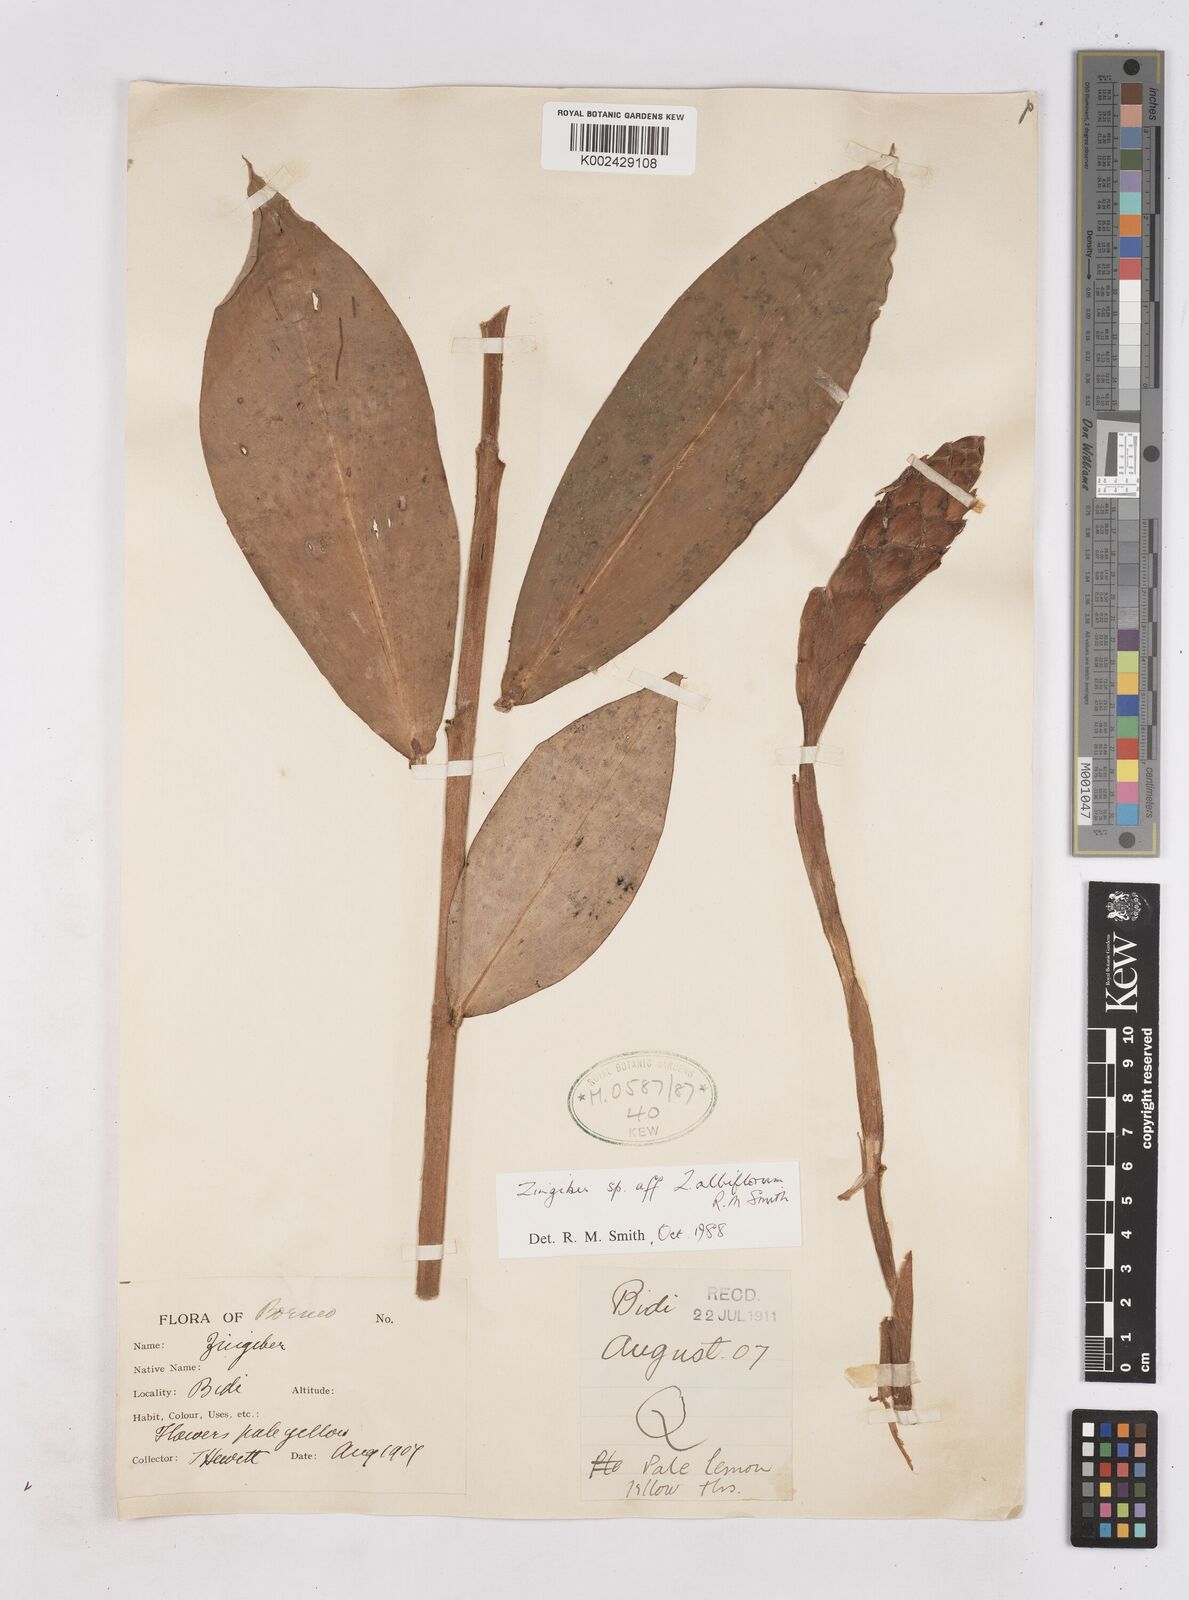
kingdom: Plantae
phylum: Tracheophyta
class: Liliopsida
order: Zingiberales
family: Zingiberaceae
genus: Zingiber
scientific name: Zingiber albiflorum
